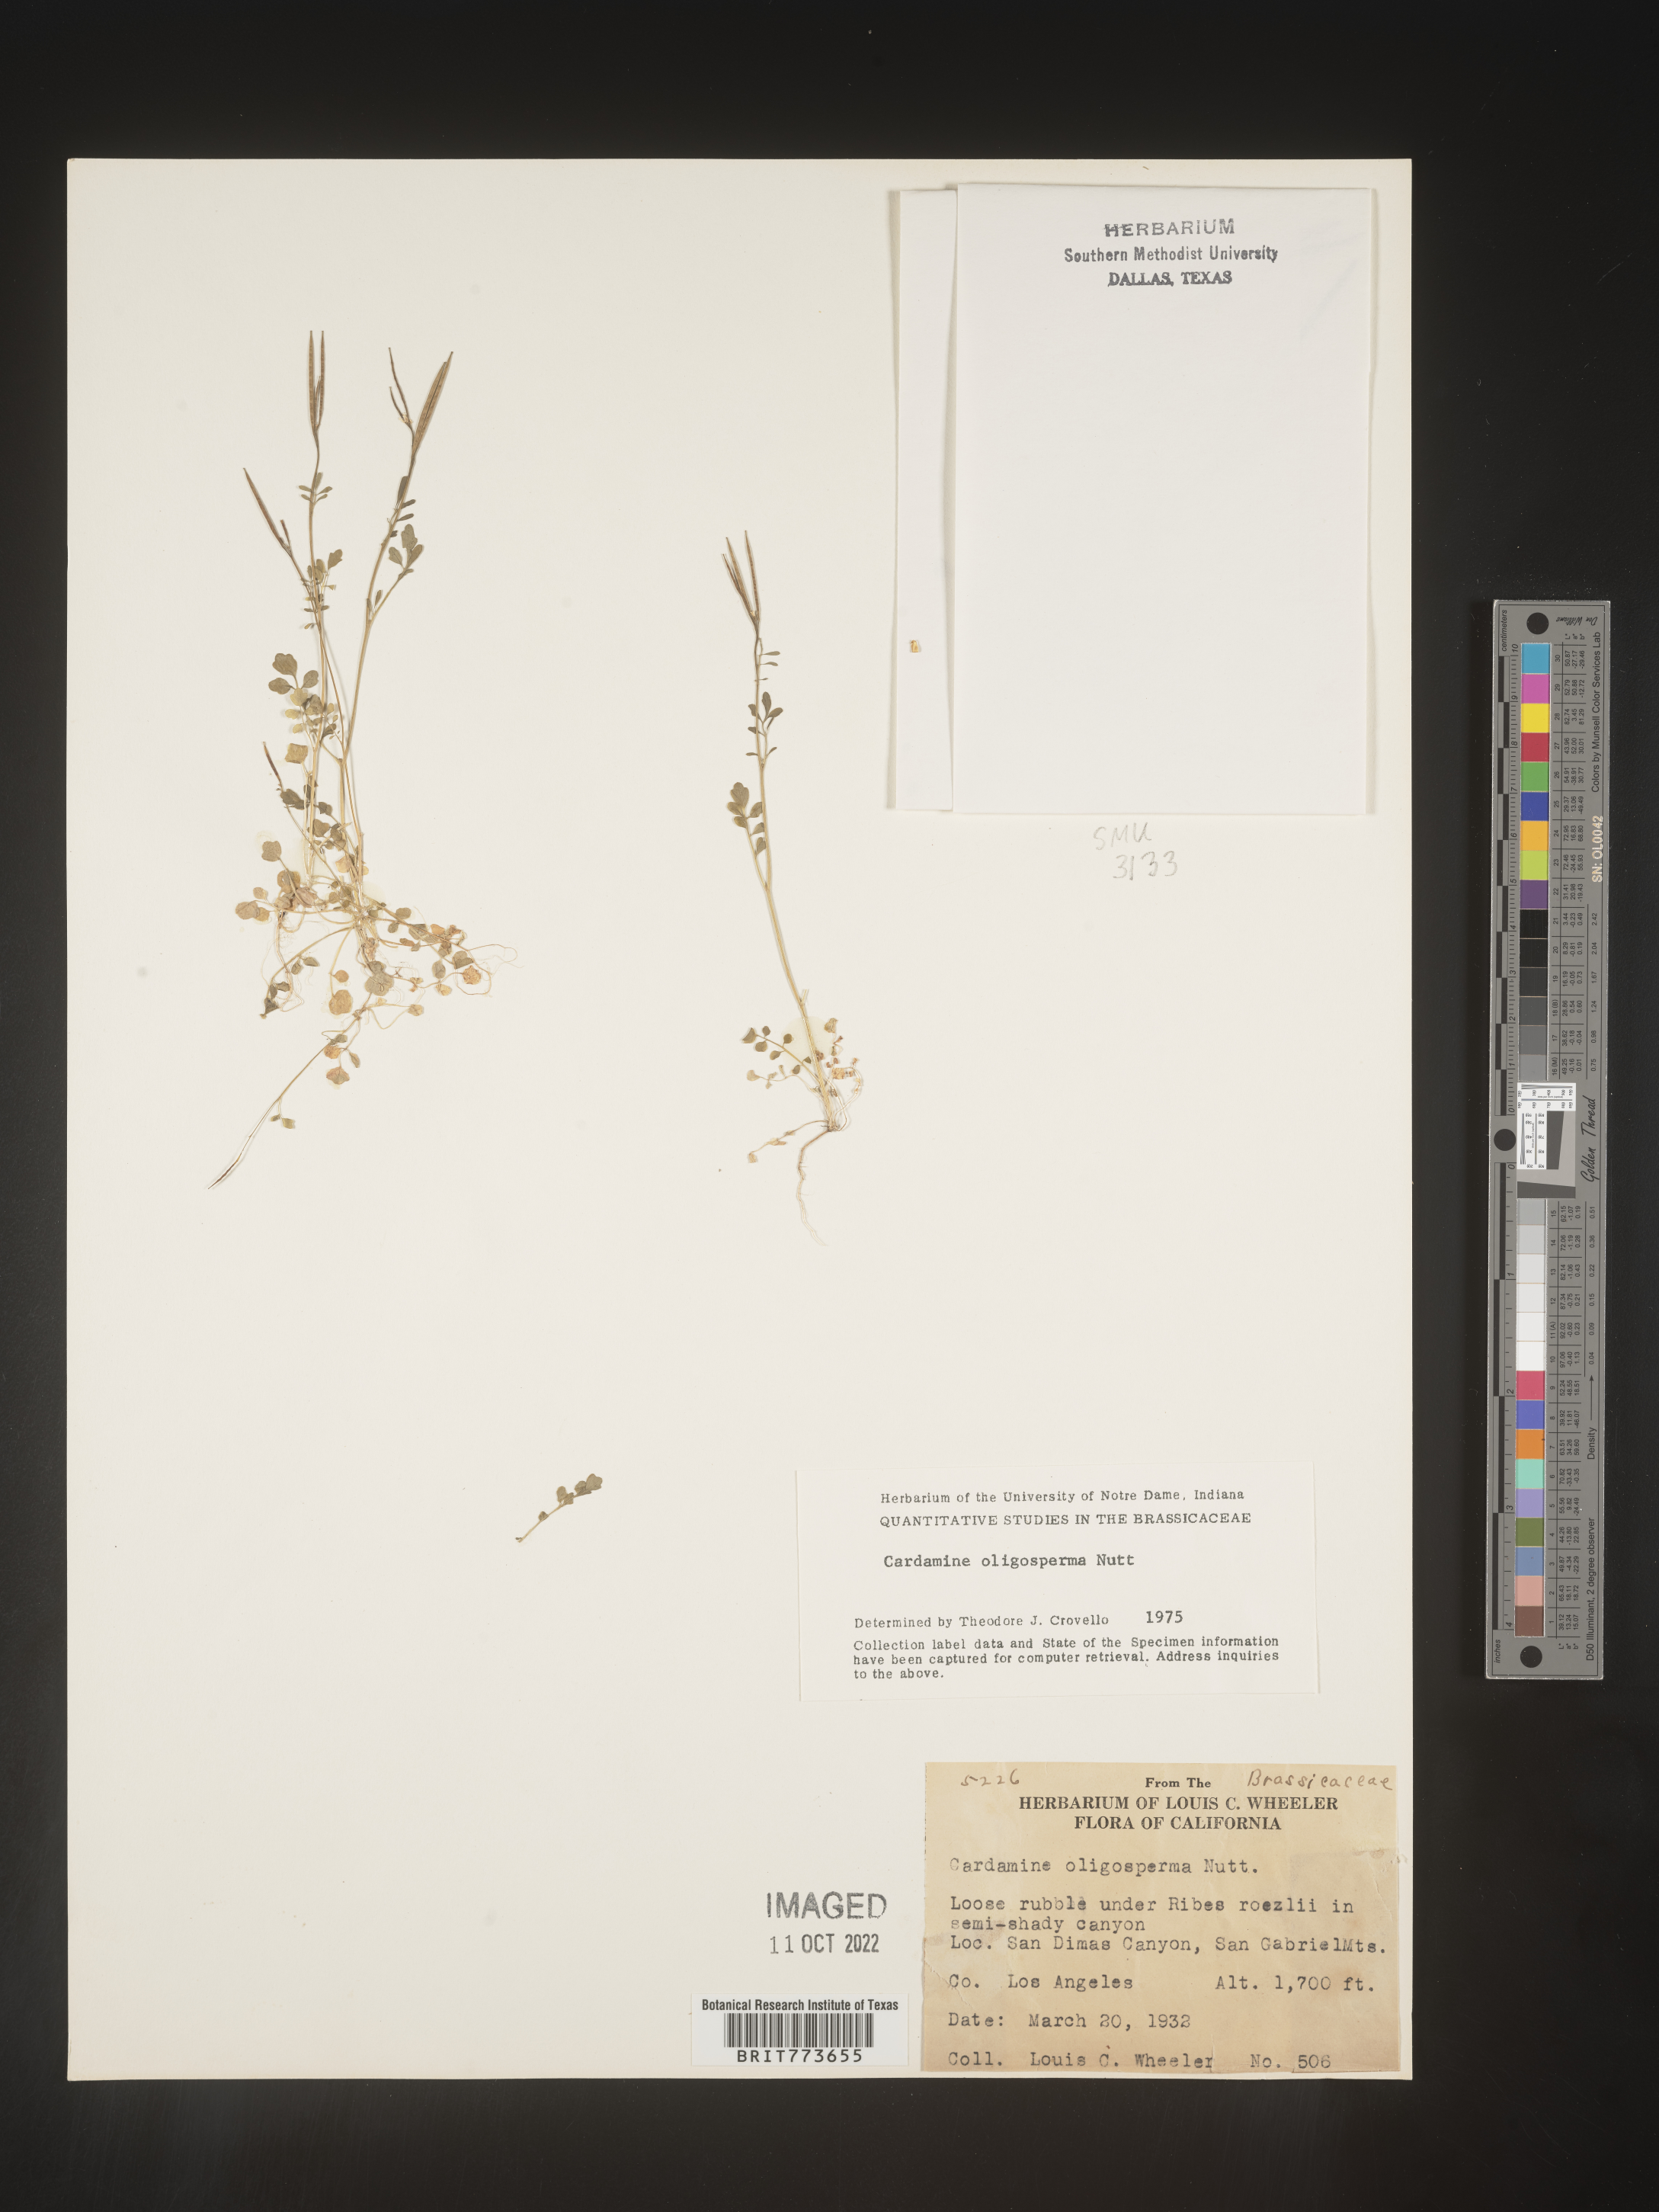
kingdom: Plantae
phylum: Tracheophyta
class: Magnoliopsida
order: Brassicales
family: Brassicaceae
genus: Cardamine
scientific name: Cardamine
